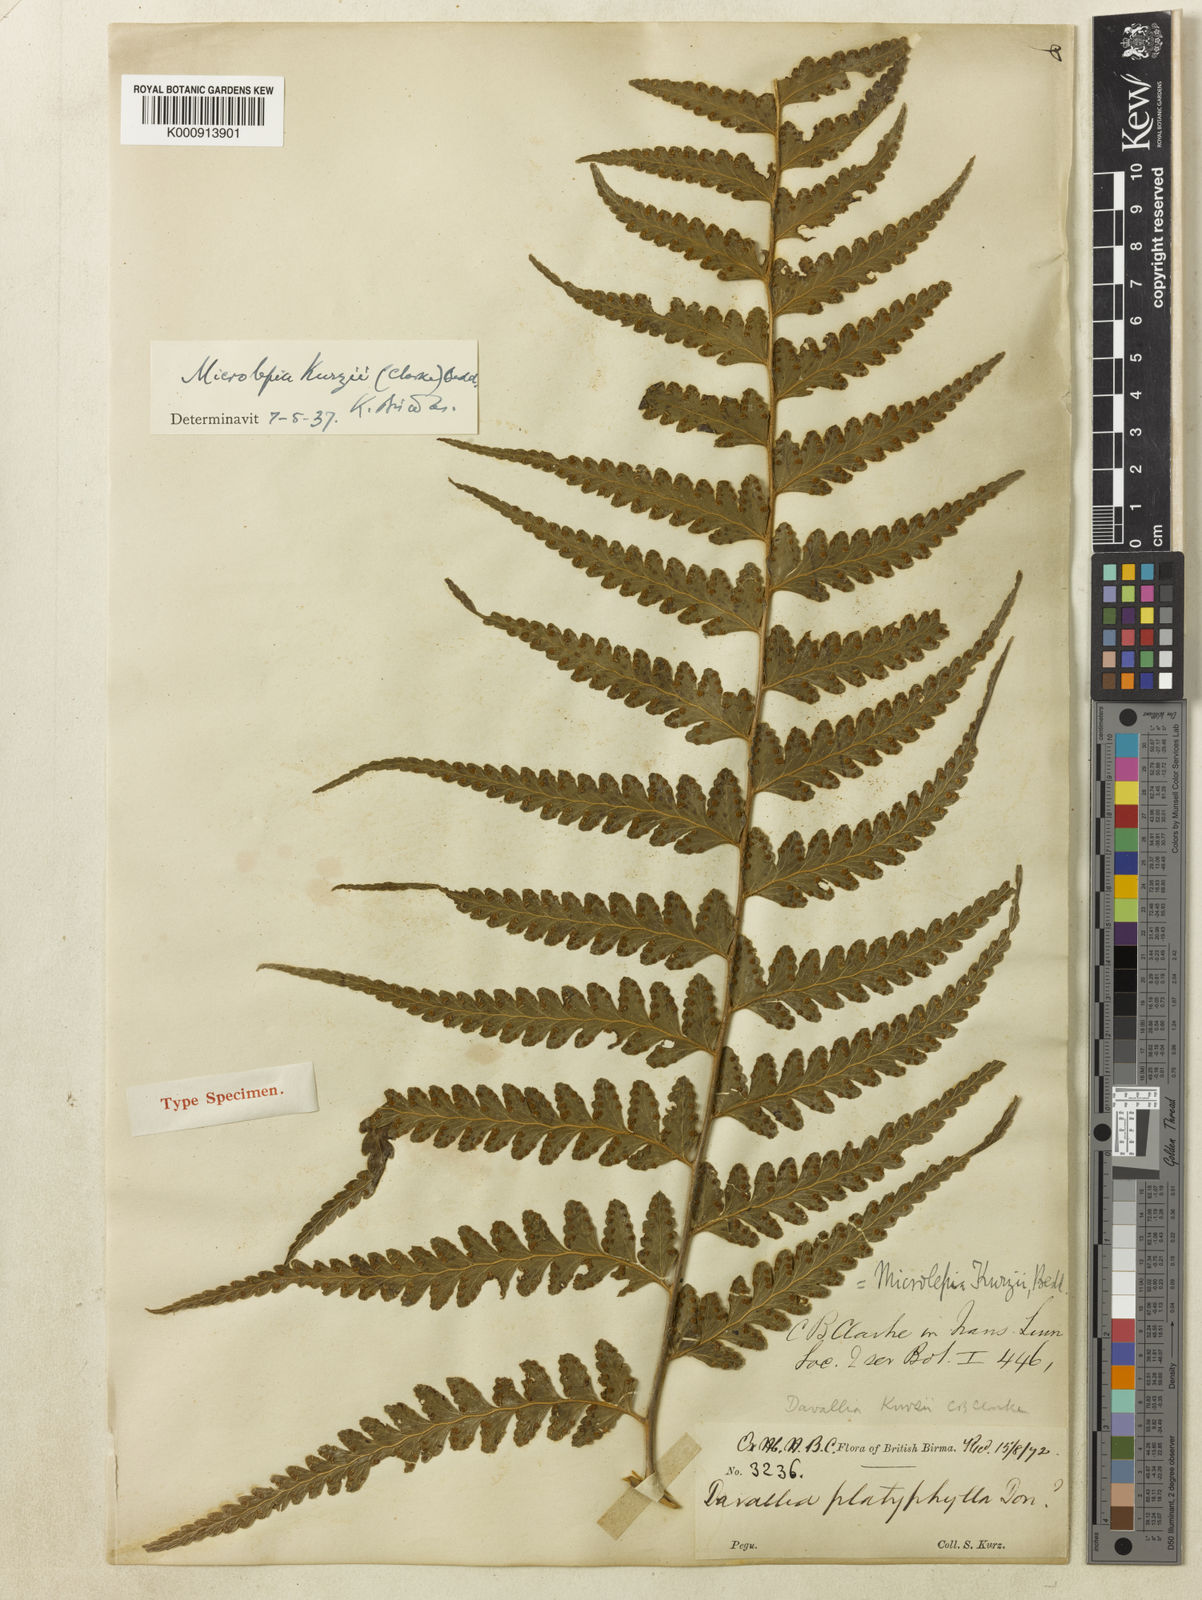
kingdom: Plantae
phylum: Tracheophyta
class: Polypodiopsida
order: Polypodiales
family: Dennstaedtiaceae
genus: Microlepia
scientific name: Microlepia kurzii
